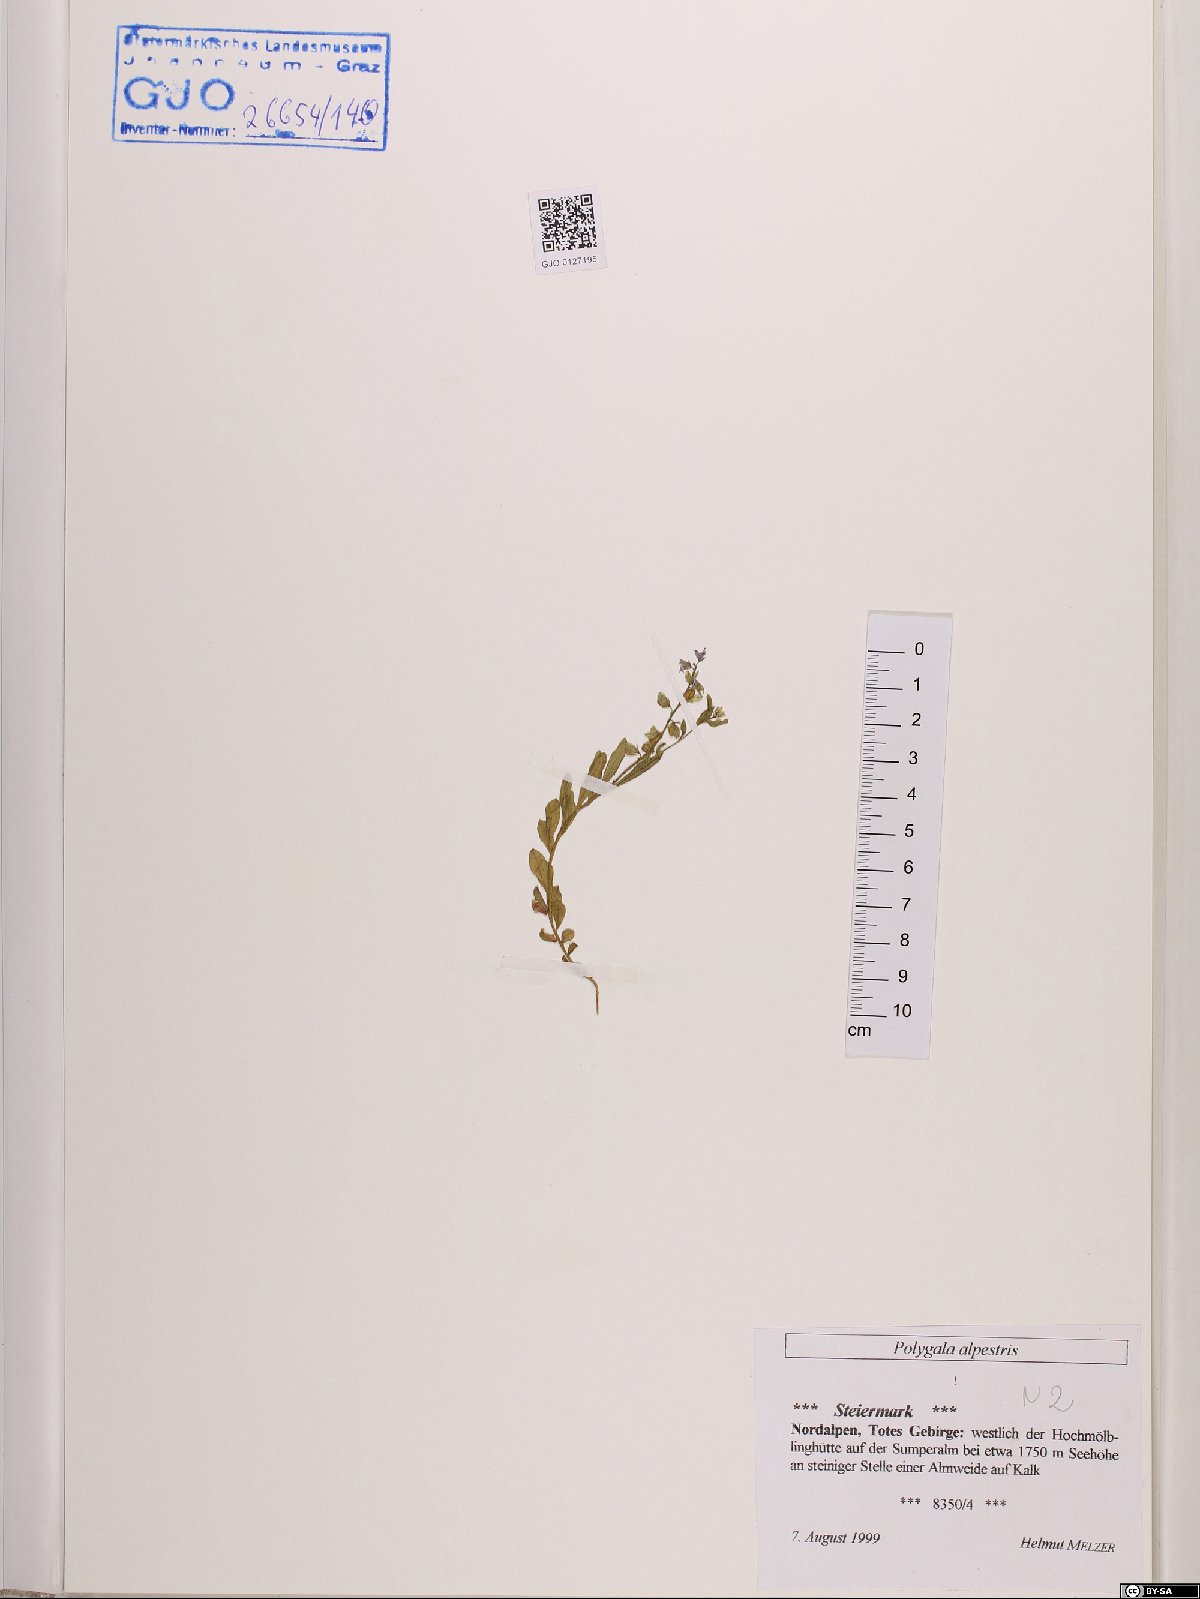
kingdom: Plantae
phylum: Tracheophyta
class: Magnoliopsida
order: Fabales
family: Polygalaceae
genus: Polygala
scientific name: Polygala alpestris
